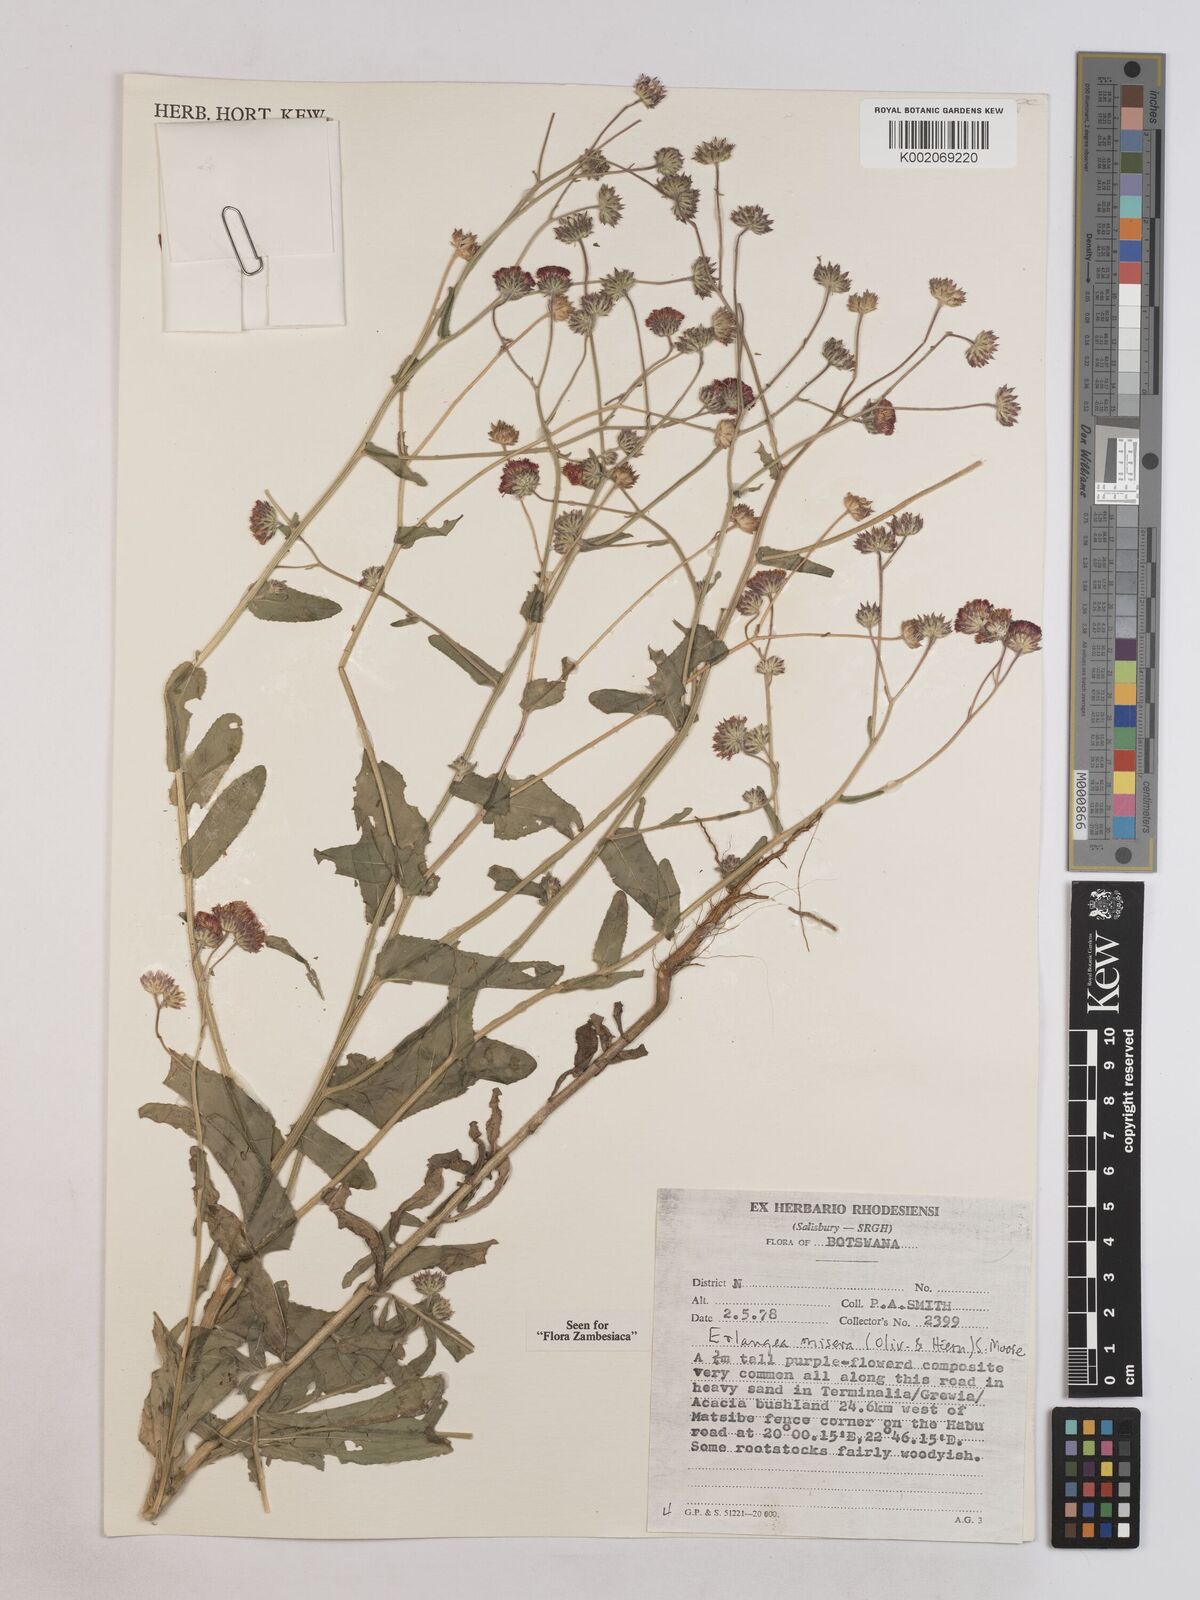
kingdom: Plantae
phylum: Tracheophyta
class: Magnoliopsida
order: Asterales
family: Asteraceae
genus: Erlangea
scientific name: Erlangea misera
